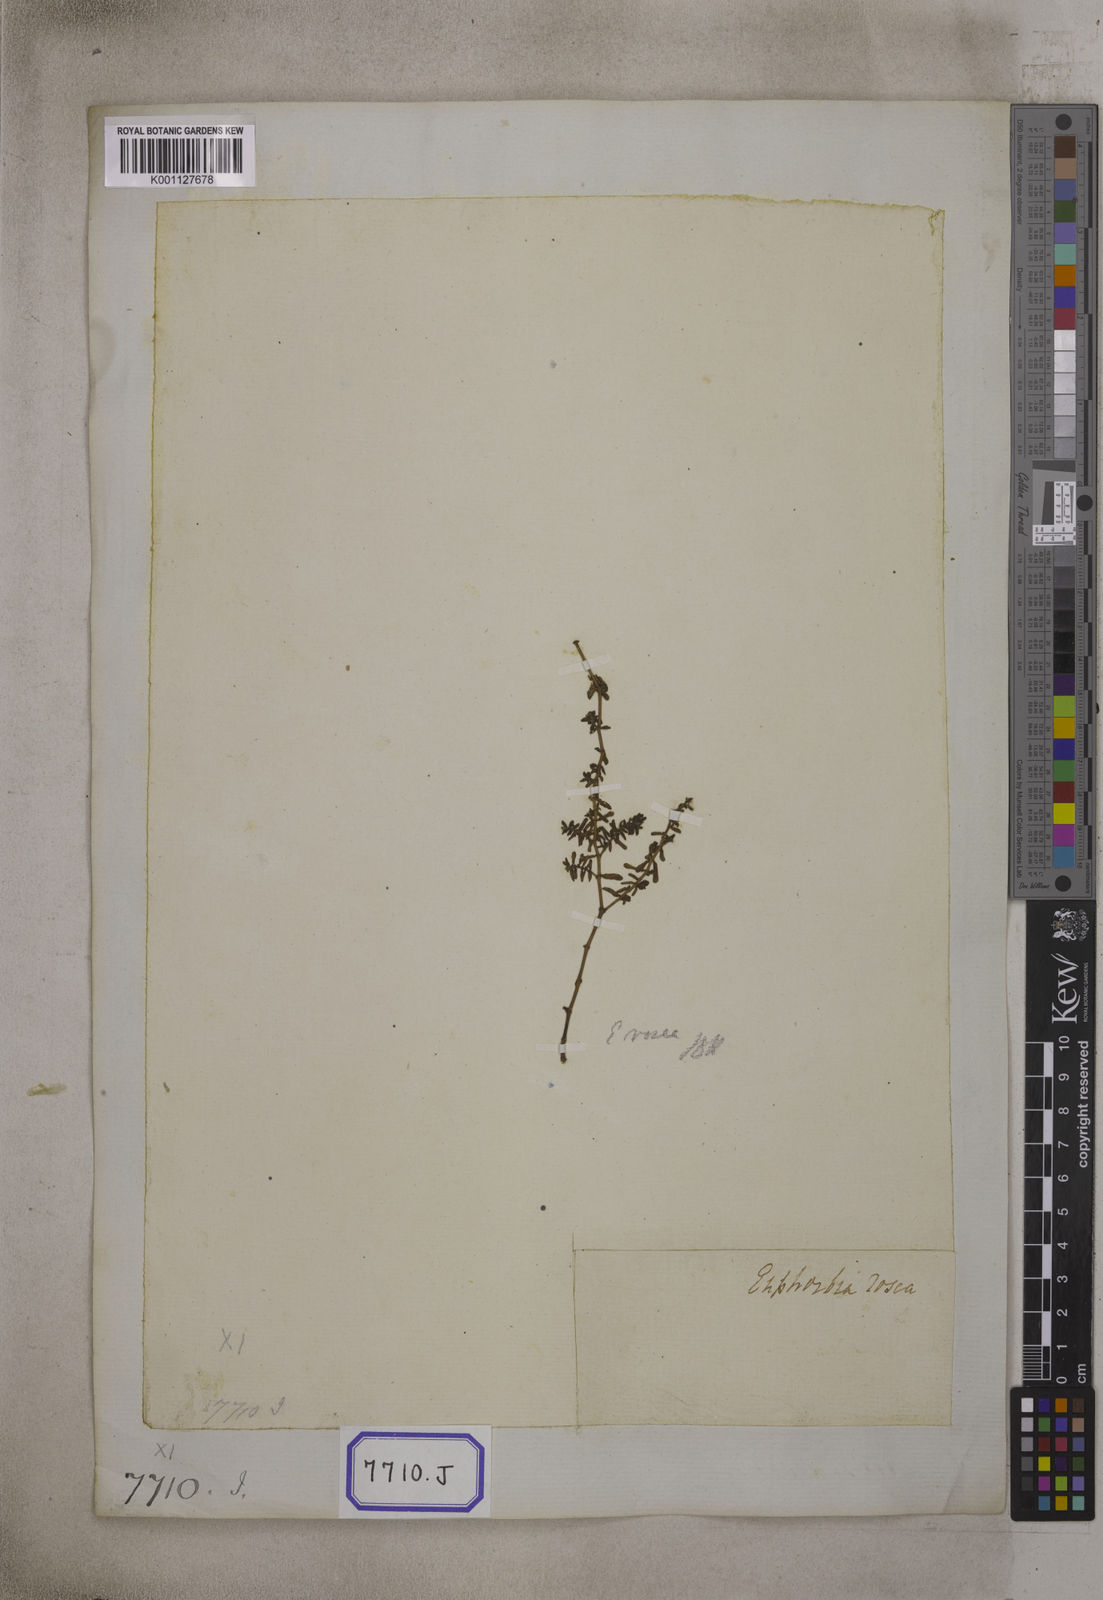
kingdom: Plantae
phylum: Tracheophyta
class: Magnoliopsida
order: Malpighiales
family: Euphorbiaceae
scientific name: Euphorbiaceae
